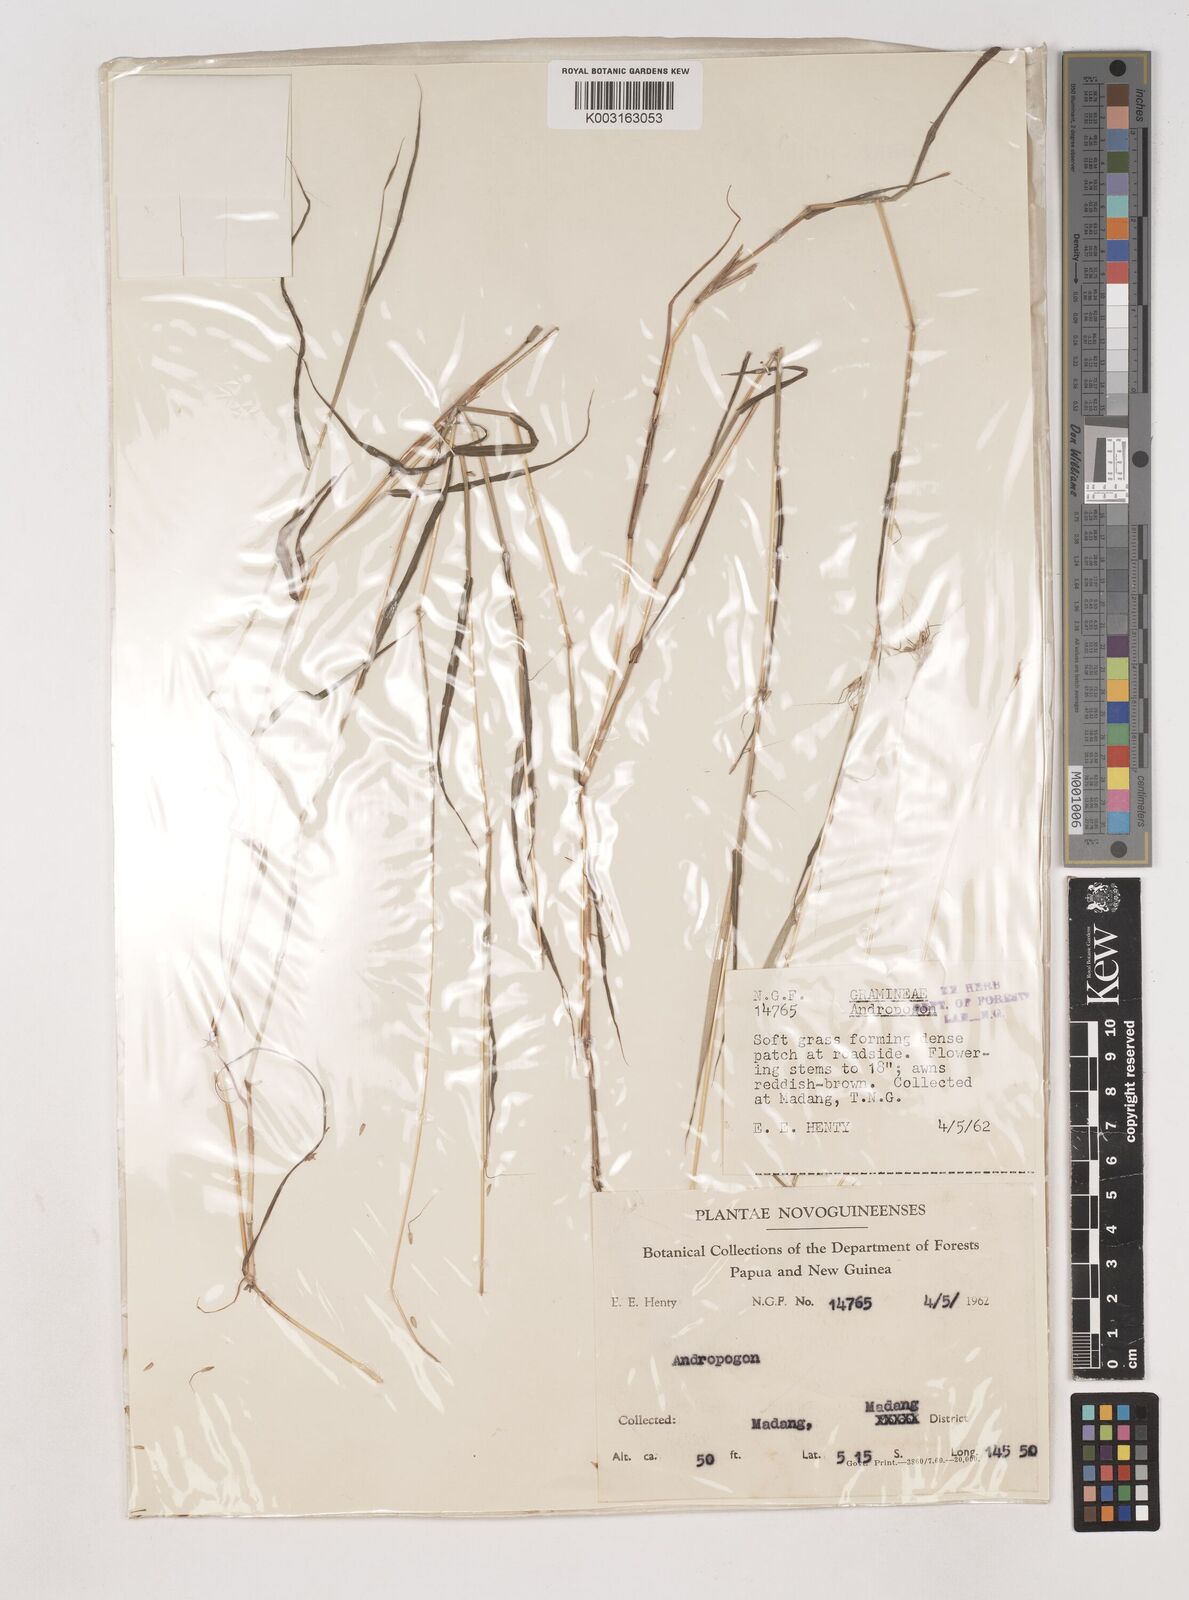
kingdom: Plantae
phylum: Tracheophyta
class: Liliopsida
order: Poales
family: Poaceae
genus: Dichanthium
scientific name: Dichanthium annulatum
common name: Kleberg's bluestem
